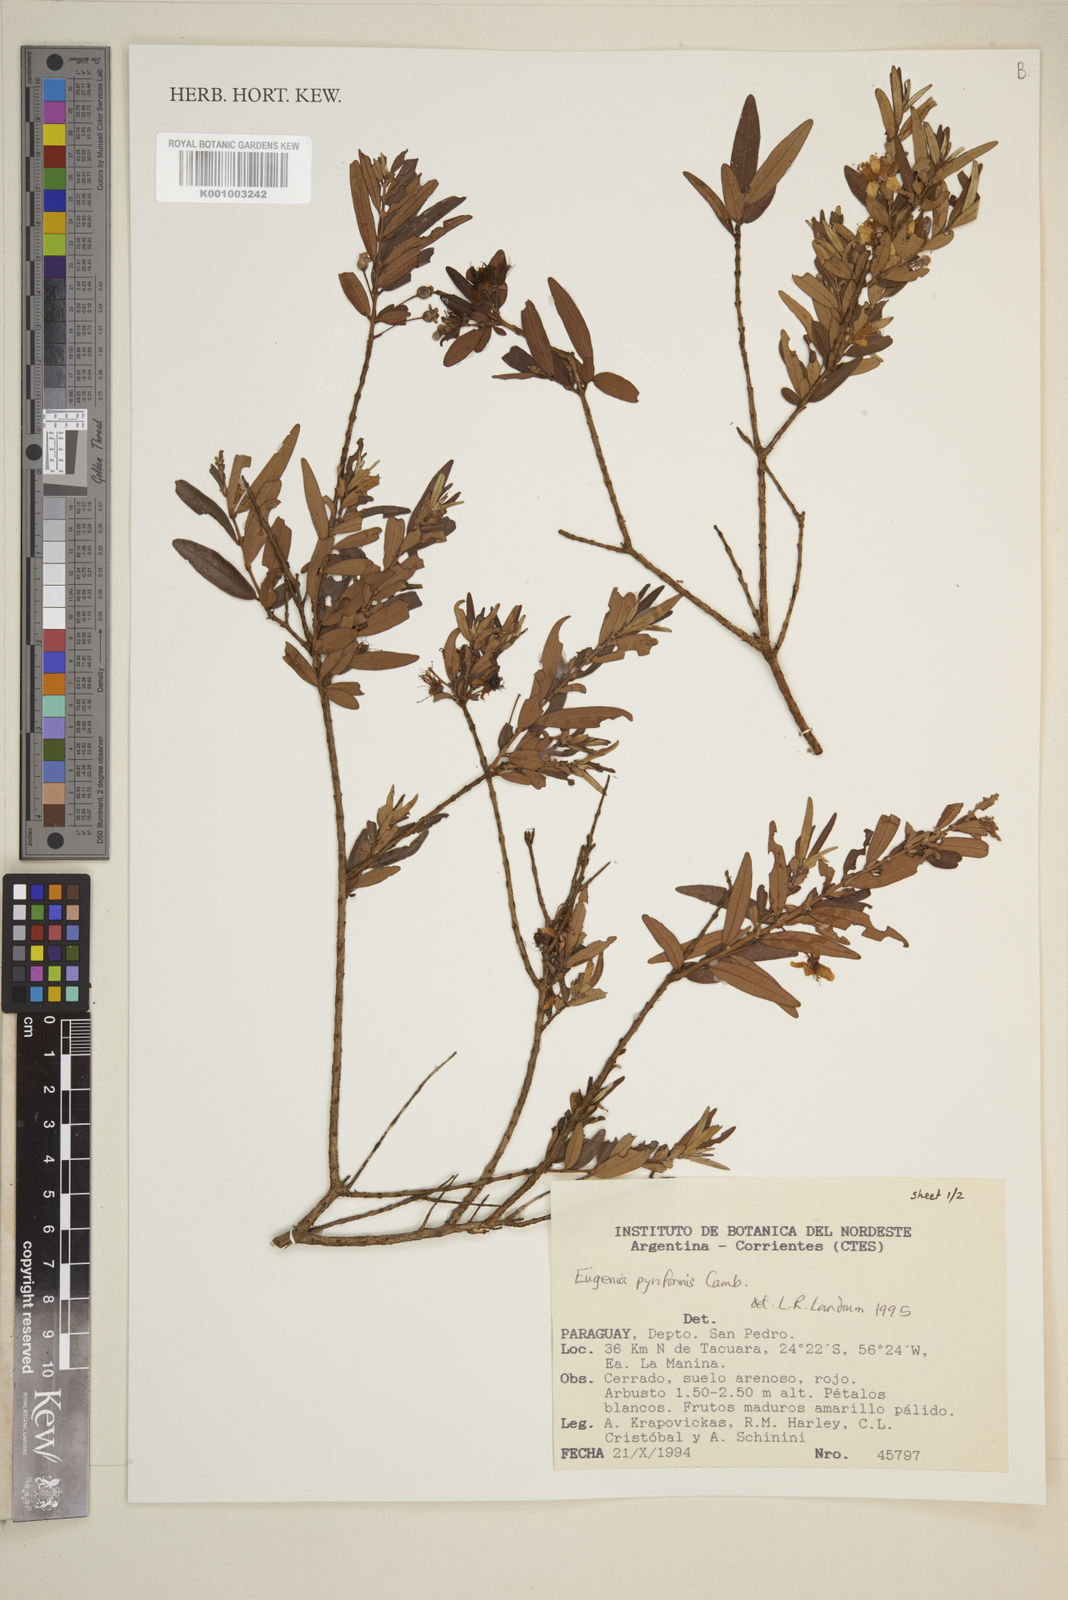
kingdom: Plantae
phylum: Tracheophyta
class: Magnoliopsida
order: Myrtales
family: Myrtaceae
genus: Eugenia
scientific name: Eugenia pyriformis
